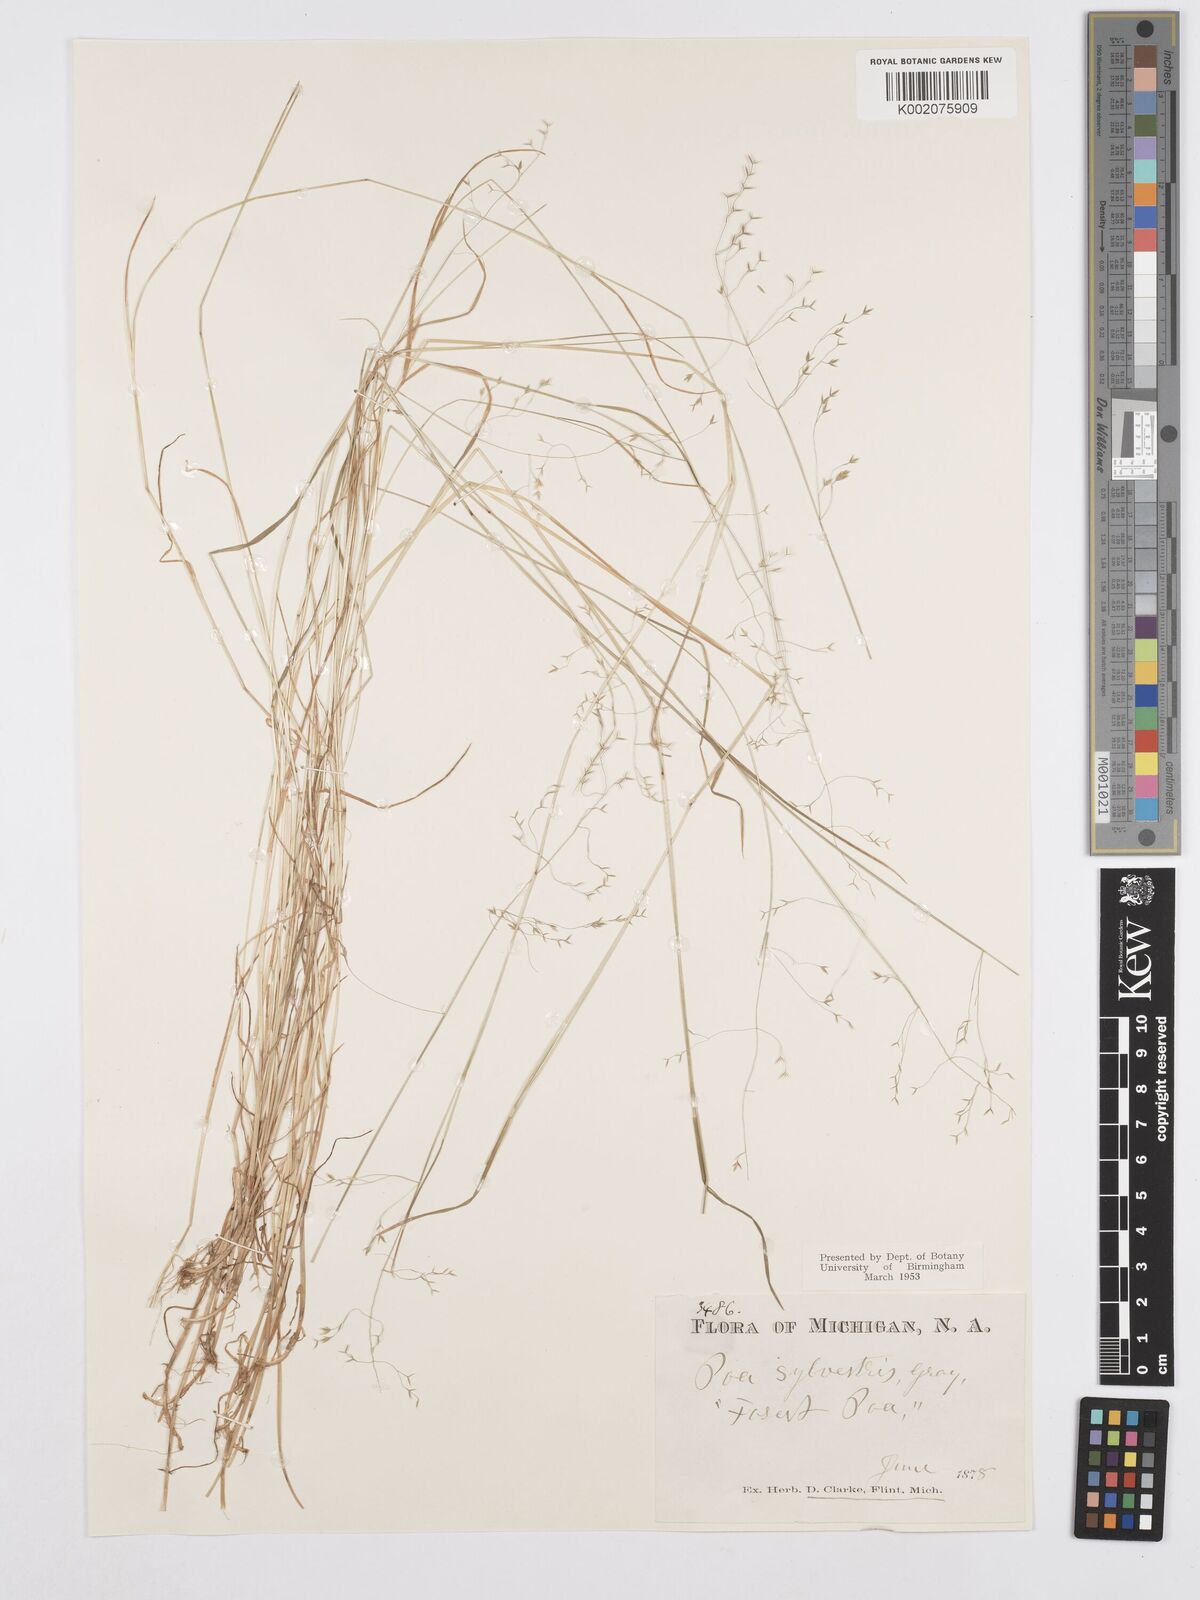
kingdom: Plantae
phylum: Tracheophyta
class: Liliopsida
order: Poales
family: Poaceae
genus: Poa
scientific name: Poa sylvestris
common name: North american woodland bluegrass
